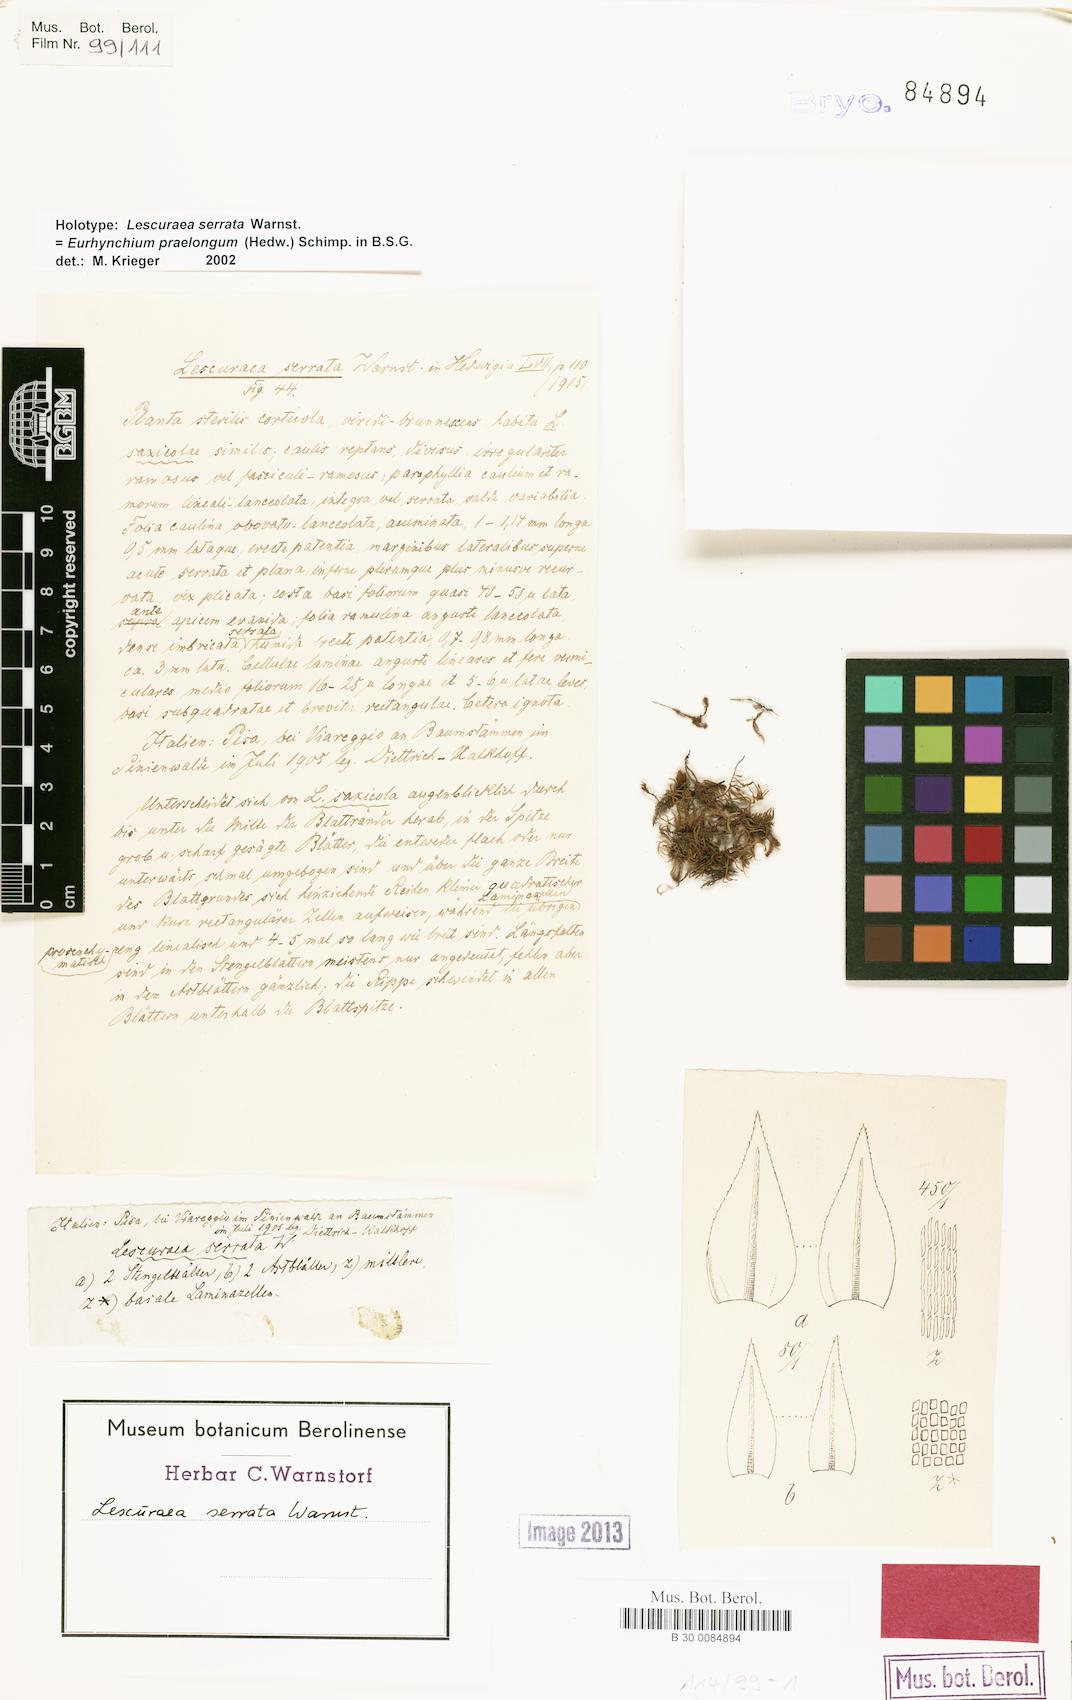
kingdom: Plantae
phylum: Bryophyta
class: Bryopsida
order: Hypnales
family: Pseudoleskeaceae
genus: Lescuraea
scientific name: Lescuraea serrata
